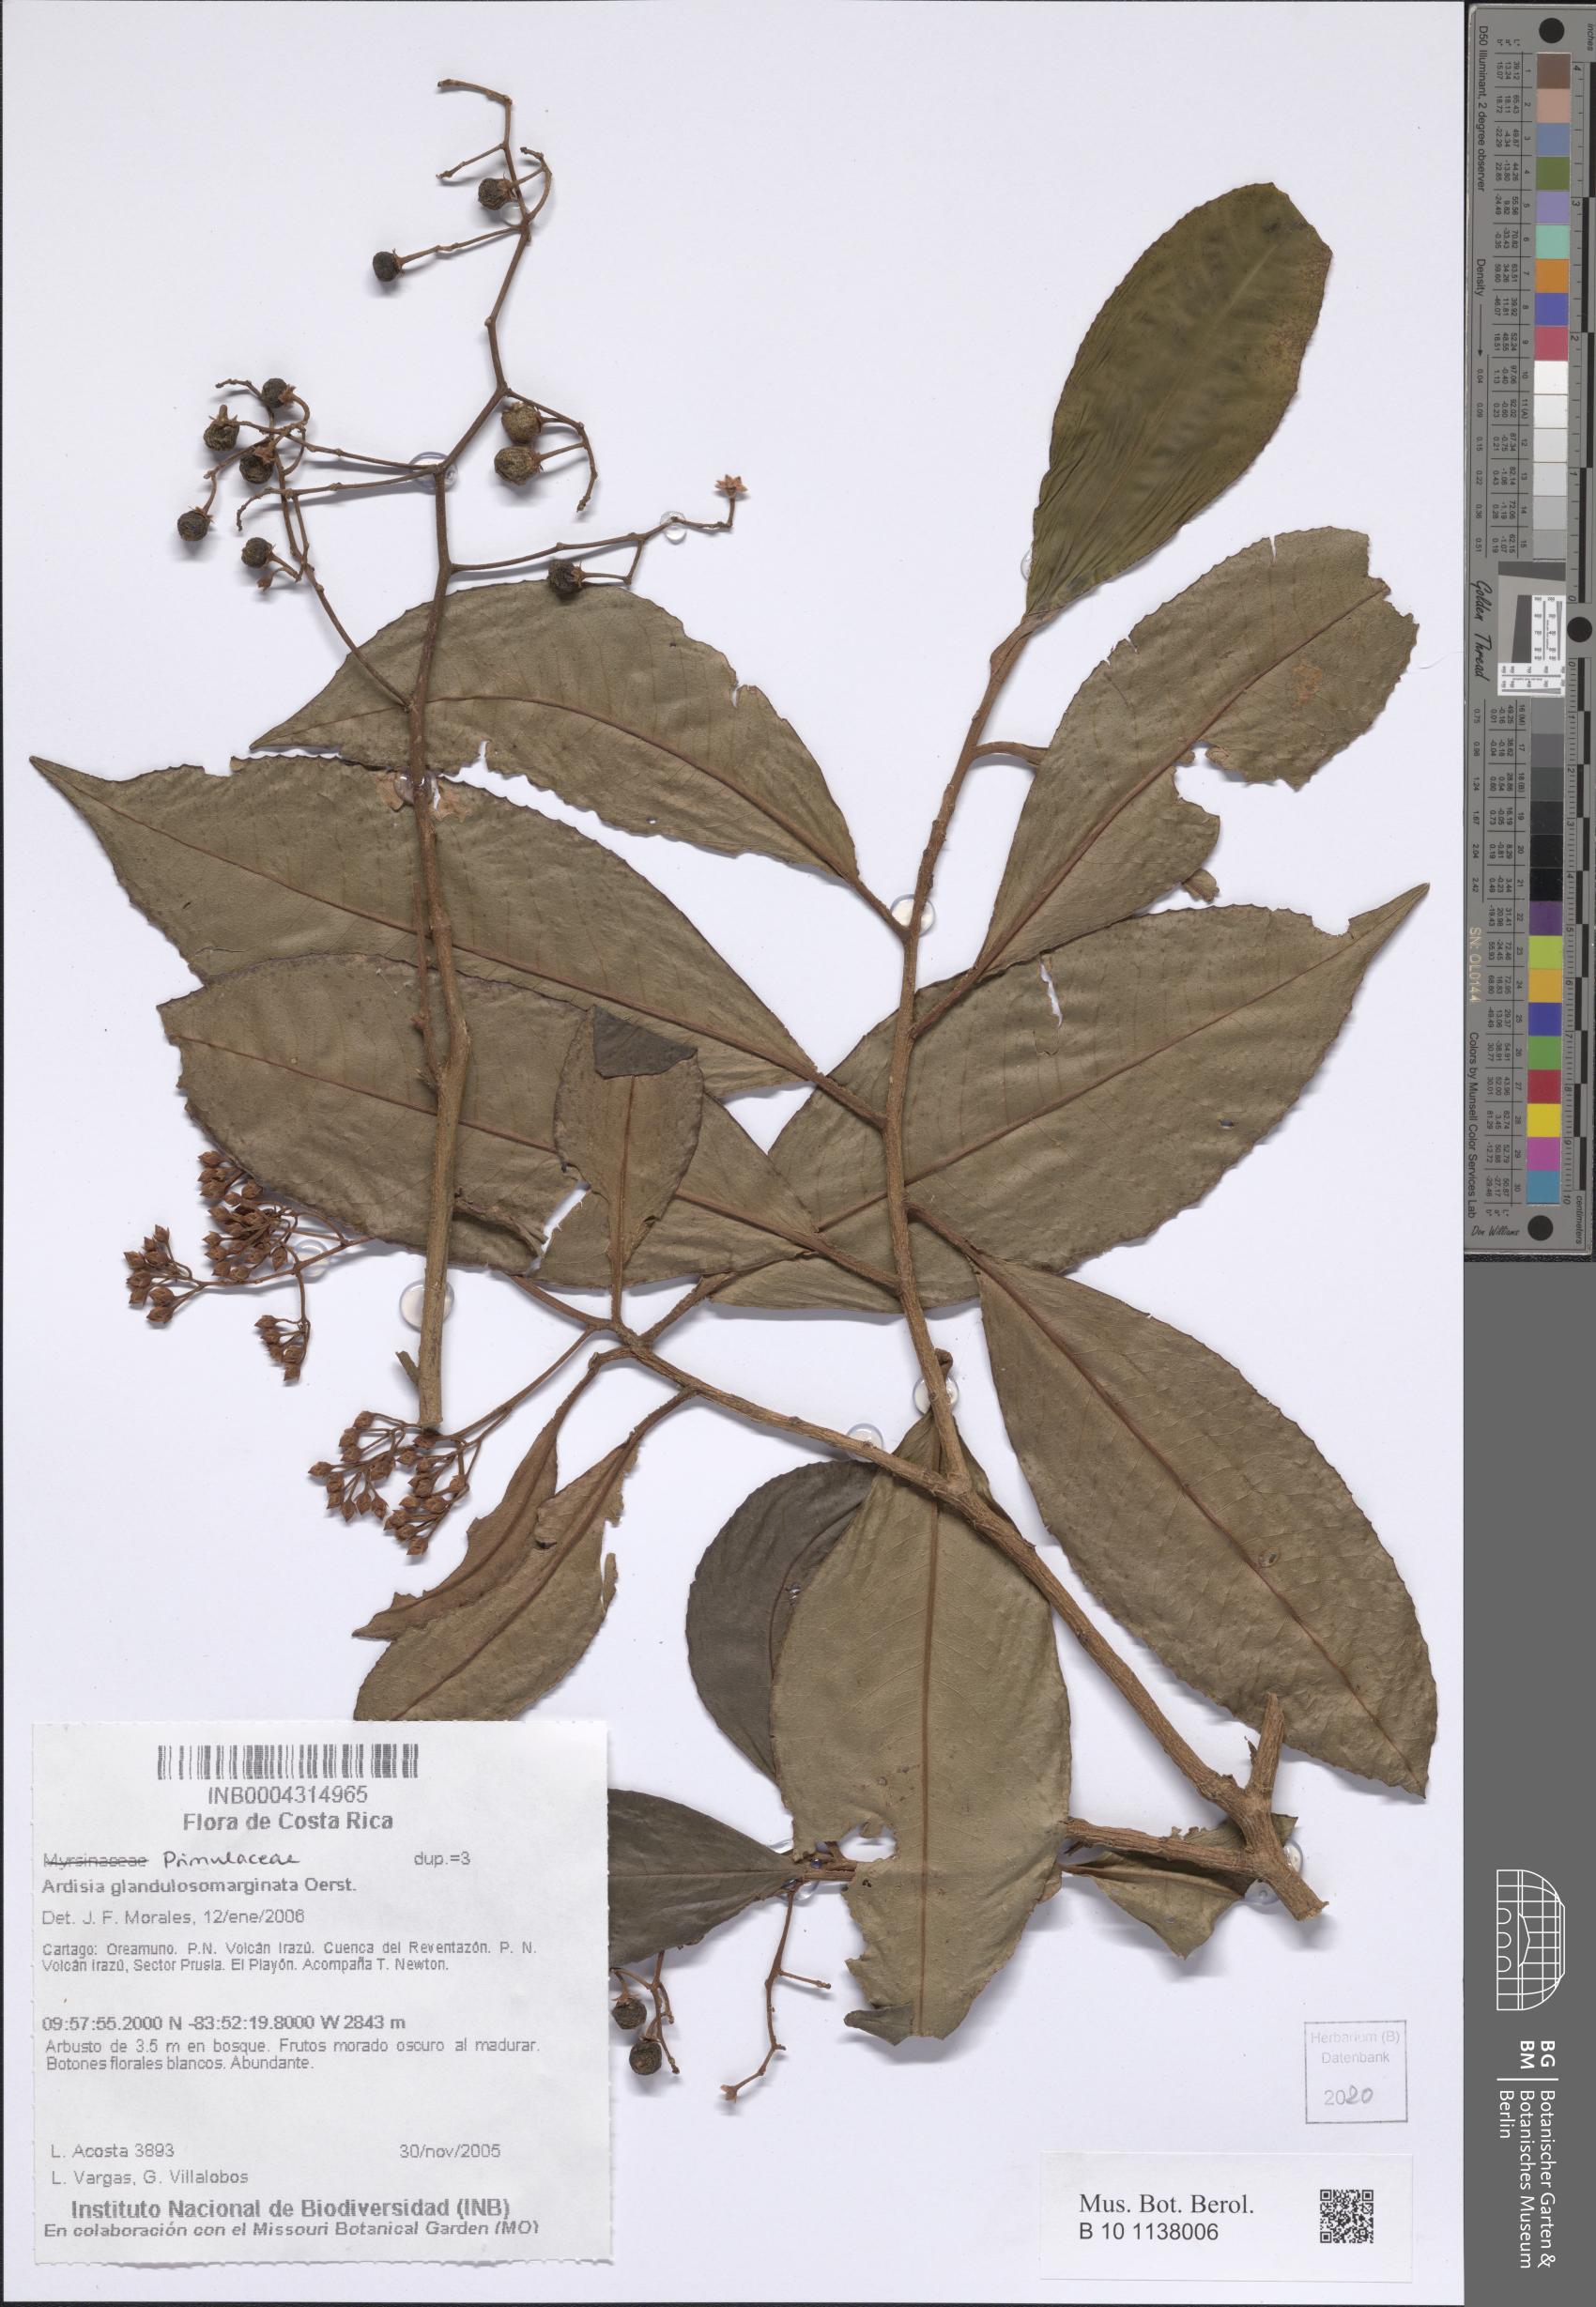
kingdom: Plantae
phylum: Tracheophyta
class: Magnoliopsida
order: Ericales
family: Primulaceae
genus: Ardisia
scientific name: Ardisia glandulosomarginata
